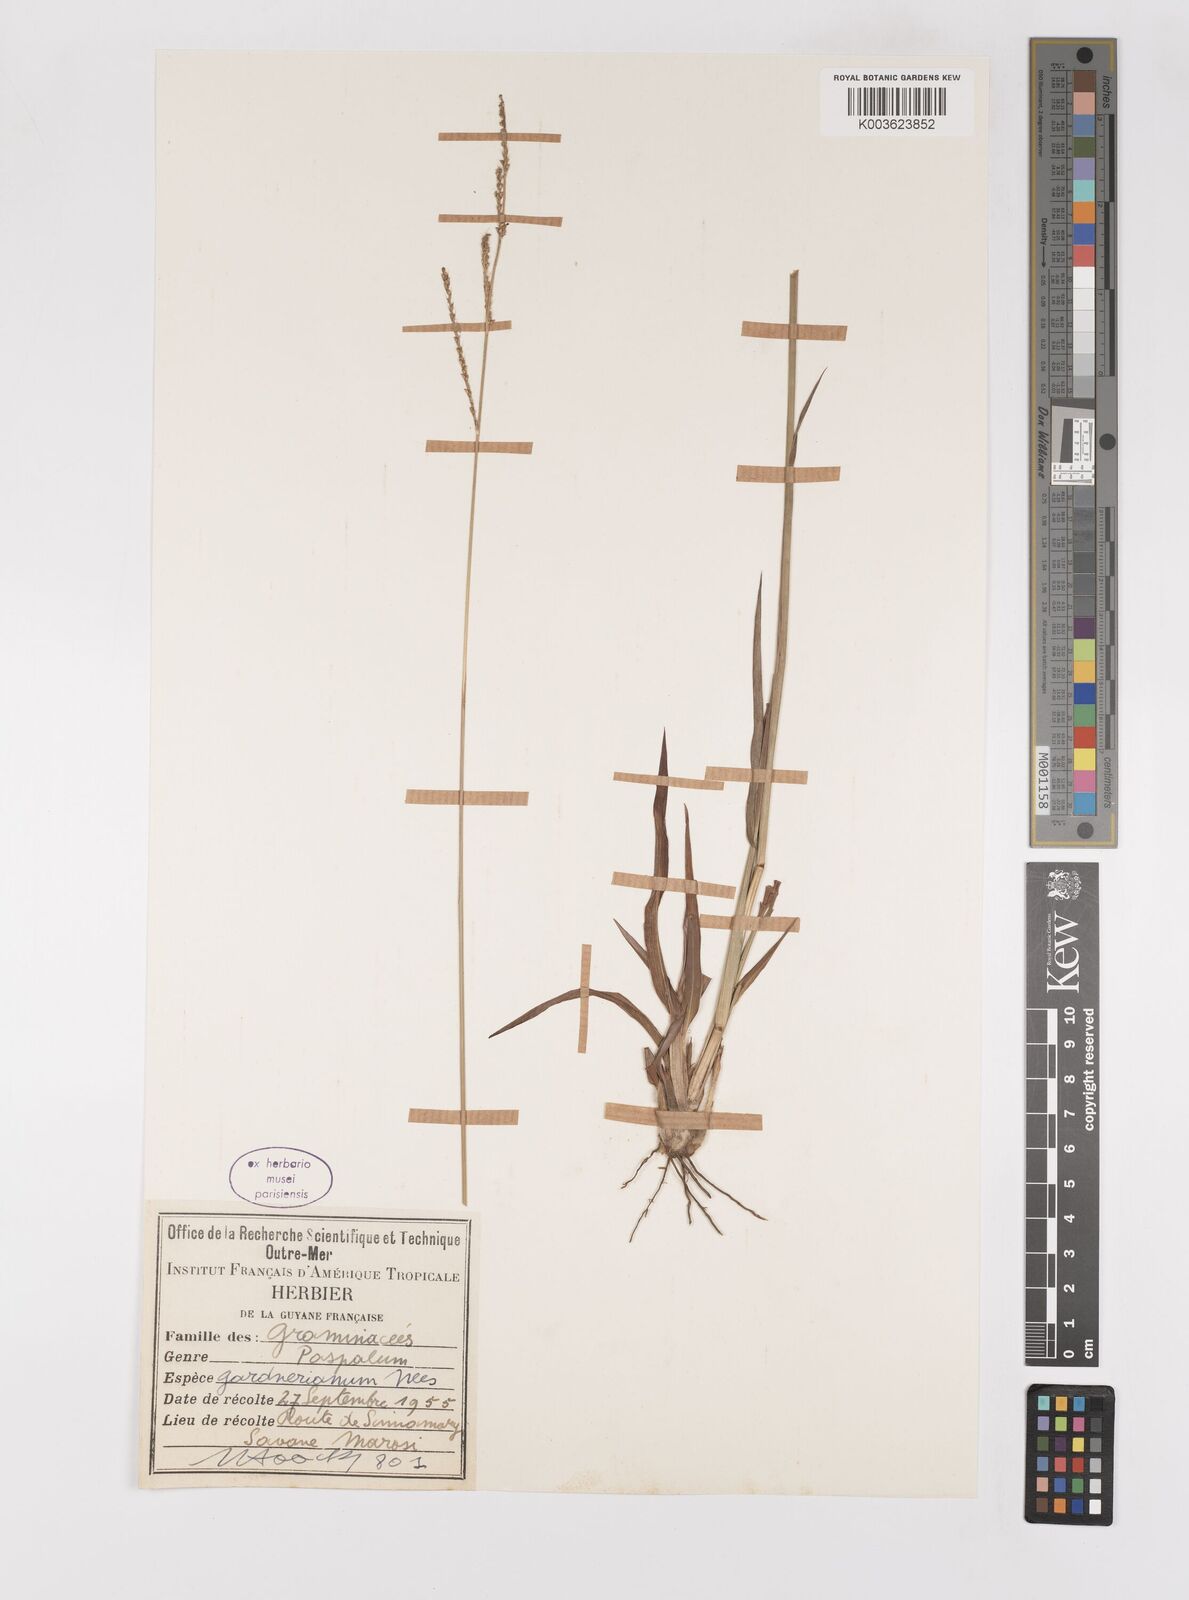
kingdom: Plantae
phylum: Tracheophyta
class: Liliopsida
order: Poales
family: Poaceae
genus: Paspalum
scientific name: Paspalum gardnerianum
